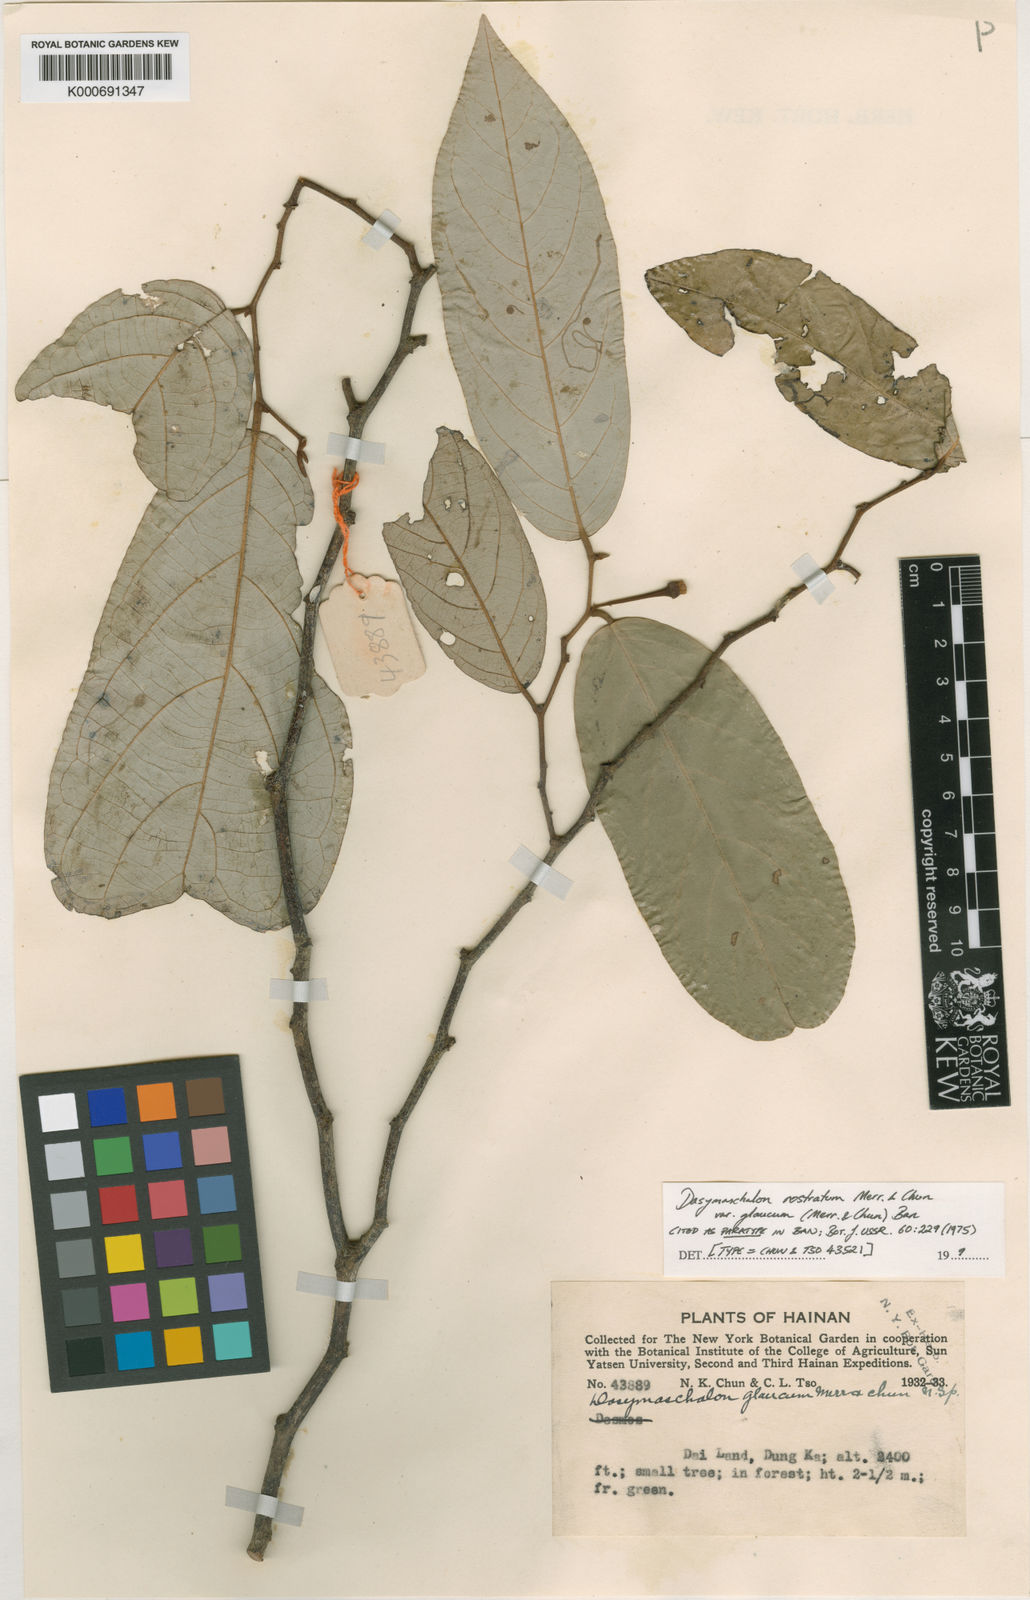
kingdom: Plantae
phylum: Tracheophyta
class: Magnoliopsida
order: Magnoliales
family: Annonaceae
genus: Dasymaschalon
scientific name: Dasymaschalon rostratum
